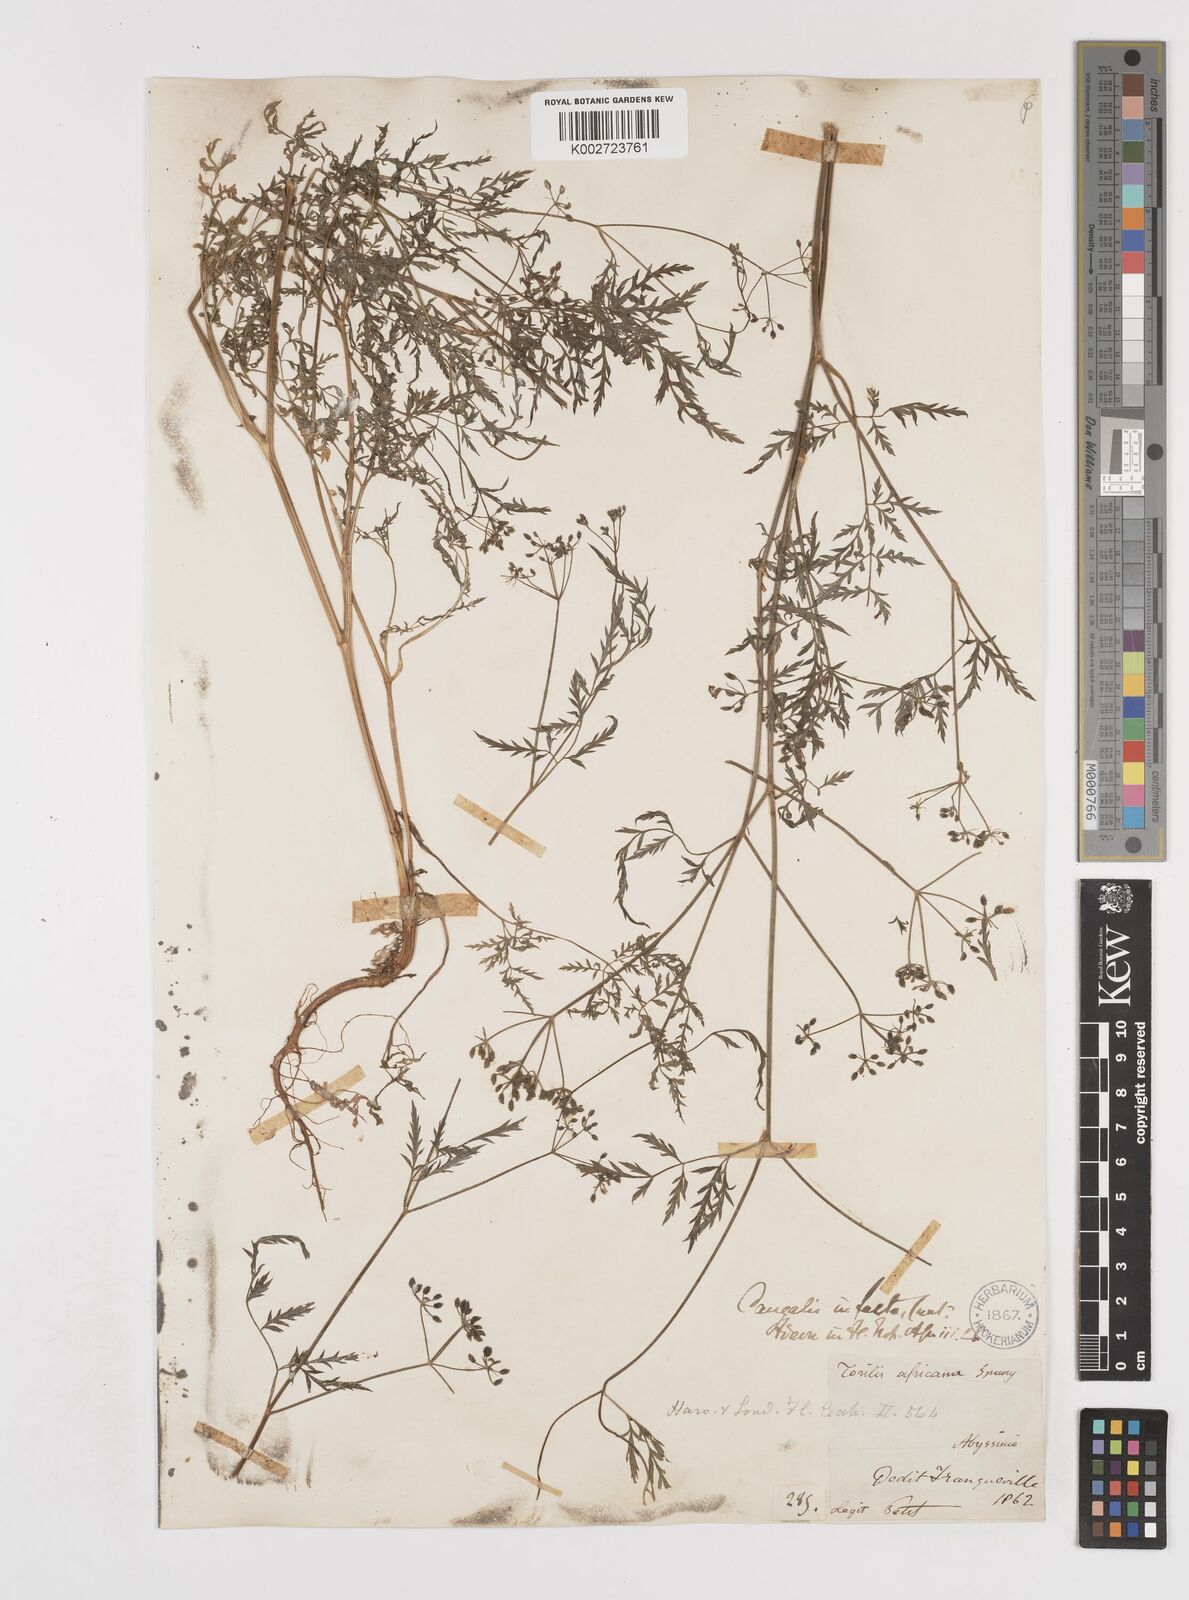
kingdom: Plantae
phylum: Tracheophyta
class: Magnoliopsida
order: Apiales
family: Apiaceae
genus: Torilis
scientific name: Torilis arvensis
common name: Spreading hedge-parsley
